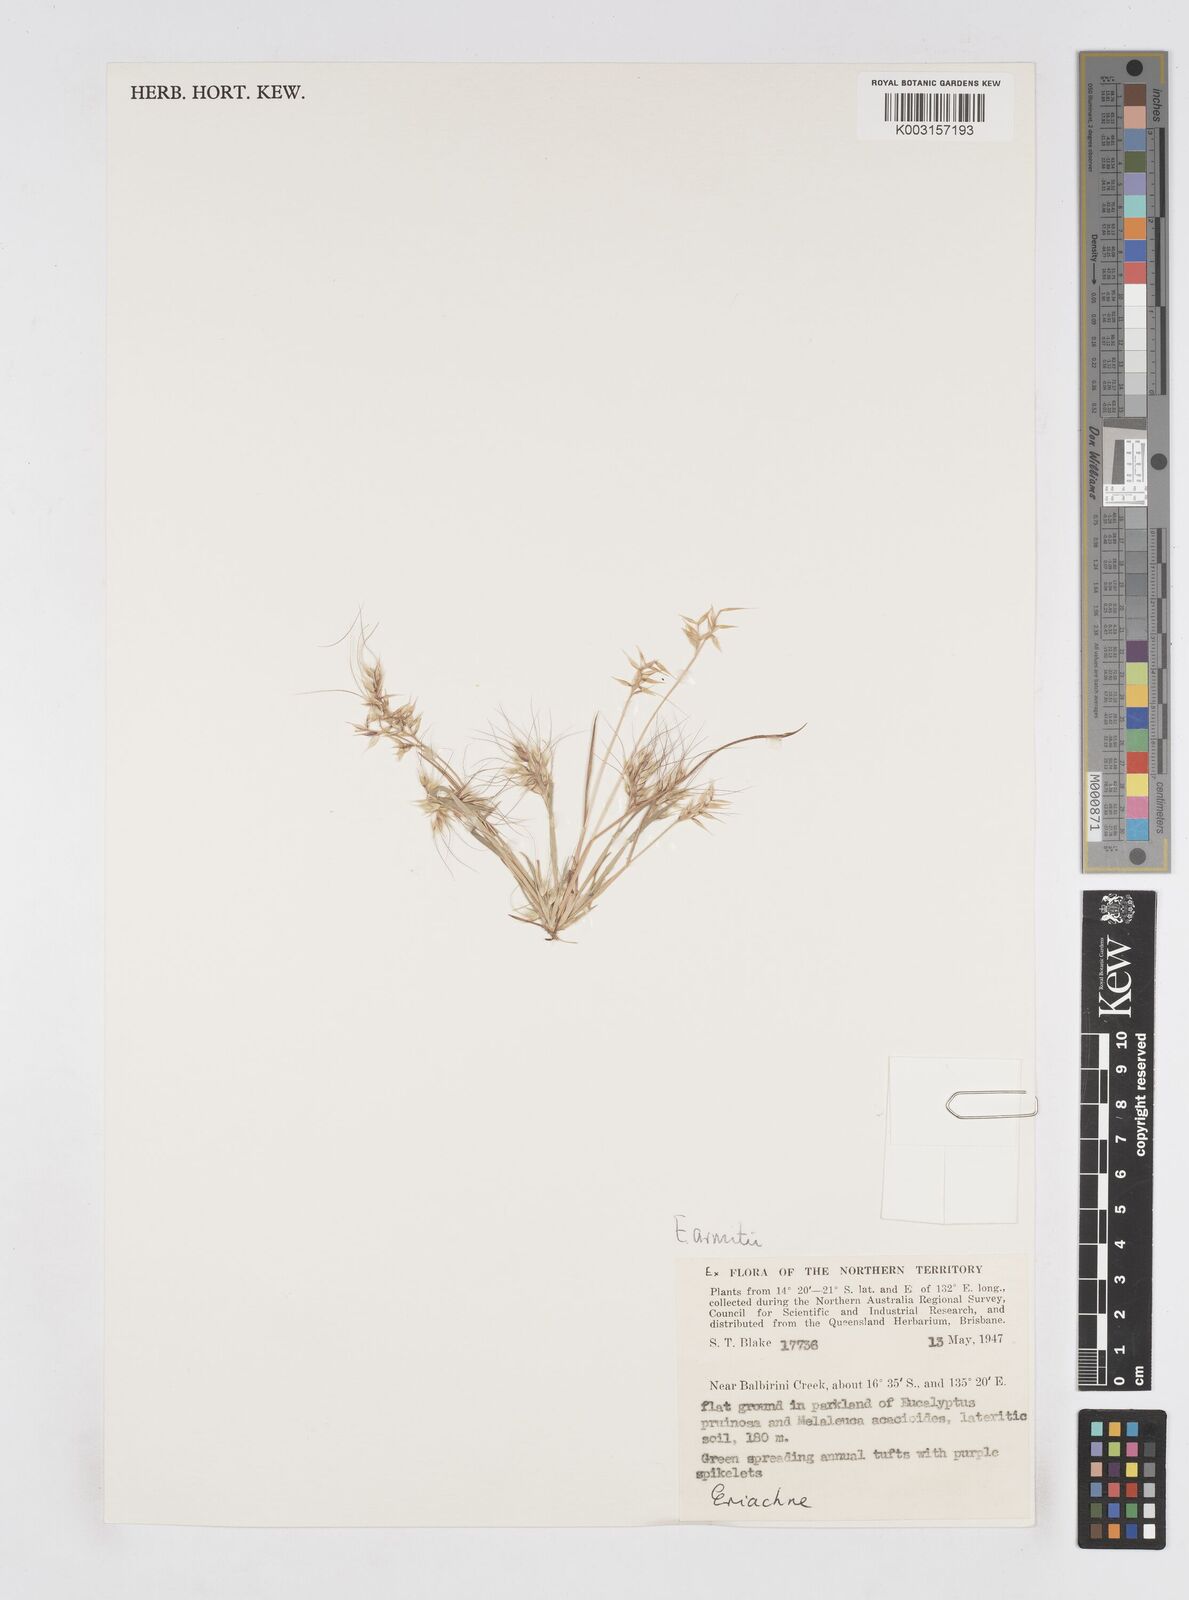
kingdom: Plantae
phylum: Tracheophyta
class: Liliopsida
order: Poales
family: Poaceae
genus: Eriachne
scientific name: Eriachne armitii
